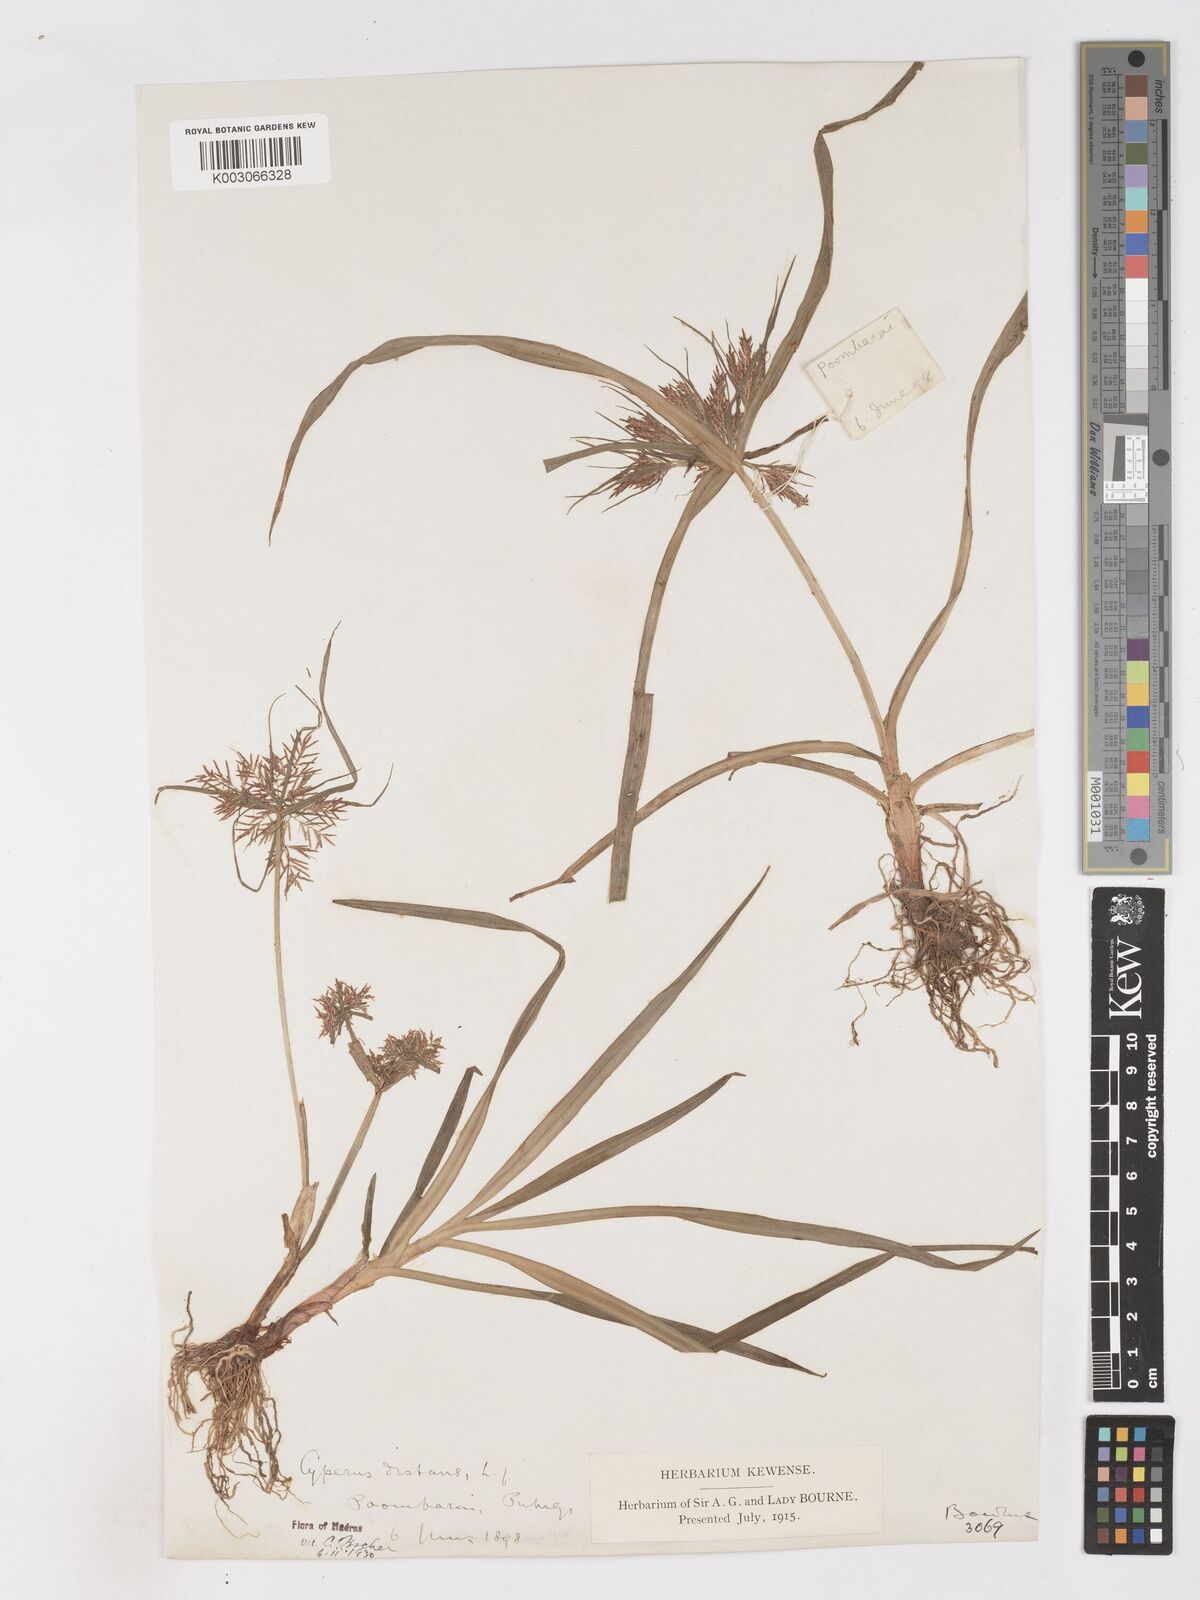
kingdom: Plantae
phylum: Tracheophyta
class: Liliopsida
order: Poales
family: Cyperaceae
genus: Cyperus
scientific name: Cyperus distans
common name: Slender cyperus
